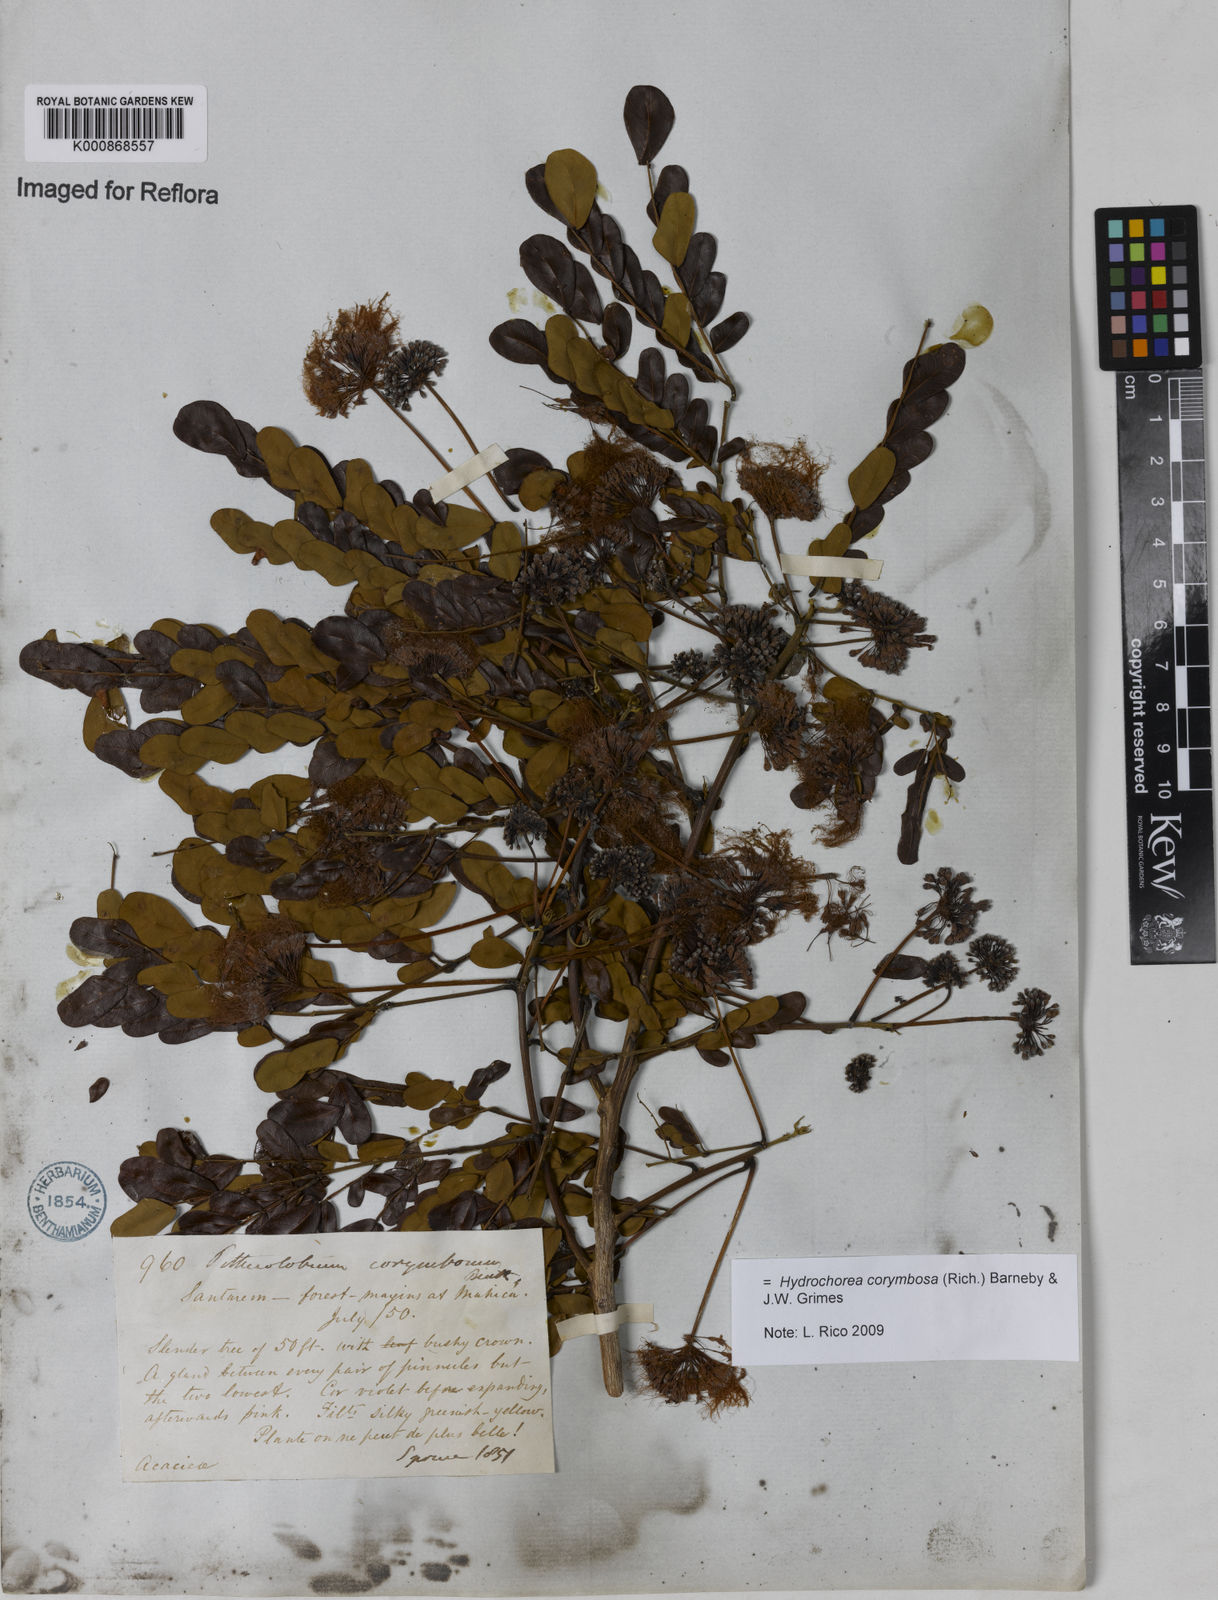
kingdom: Plantae
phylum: Tracheophyta
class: Magnoliopsida
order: Fabales
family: Fabaceae
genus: Hydrochorea
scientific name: Hydrochorea corymbosa
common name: Swamp manariballi
